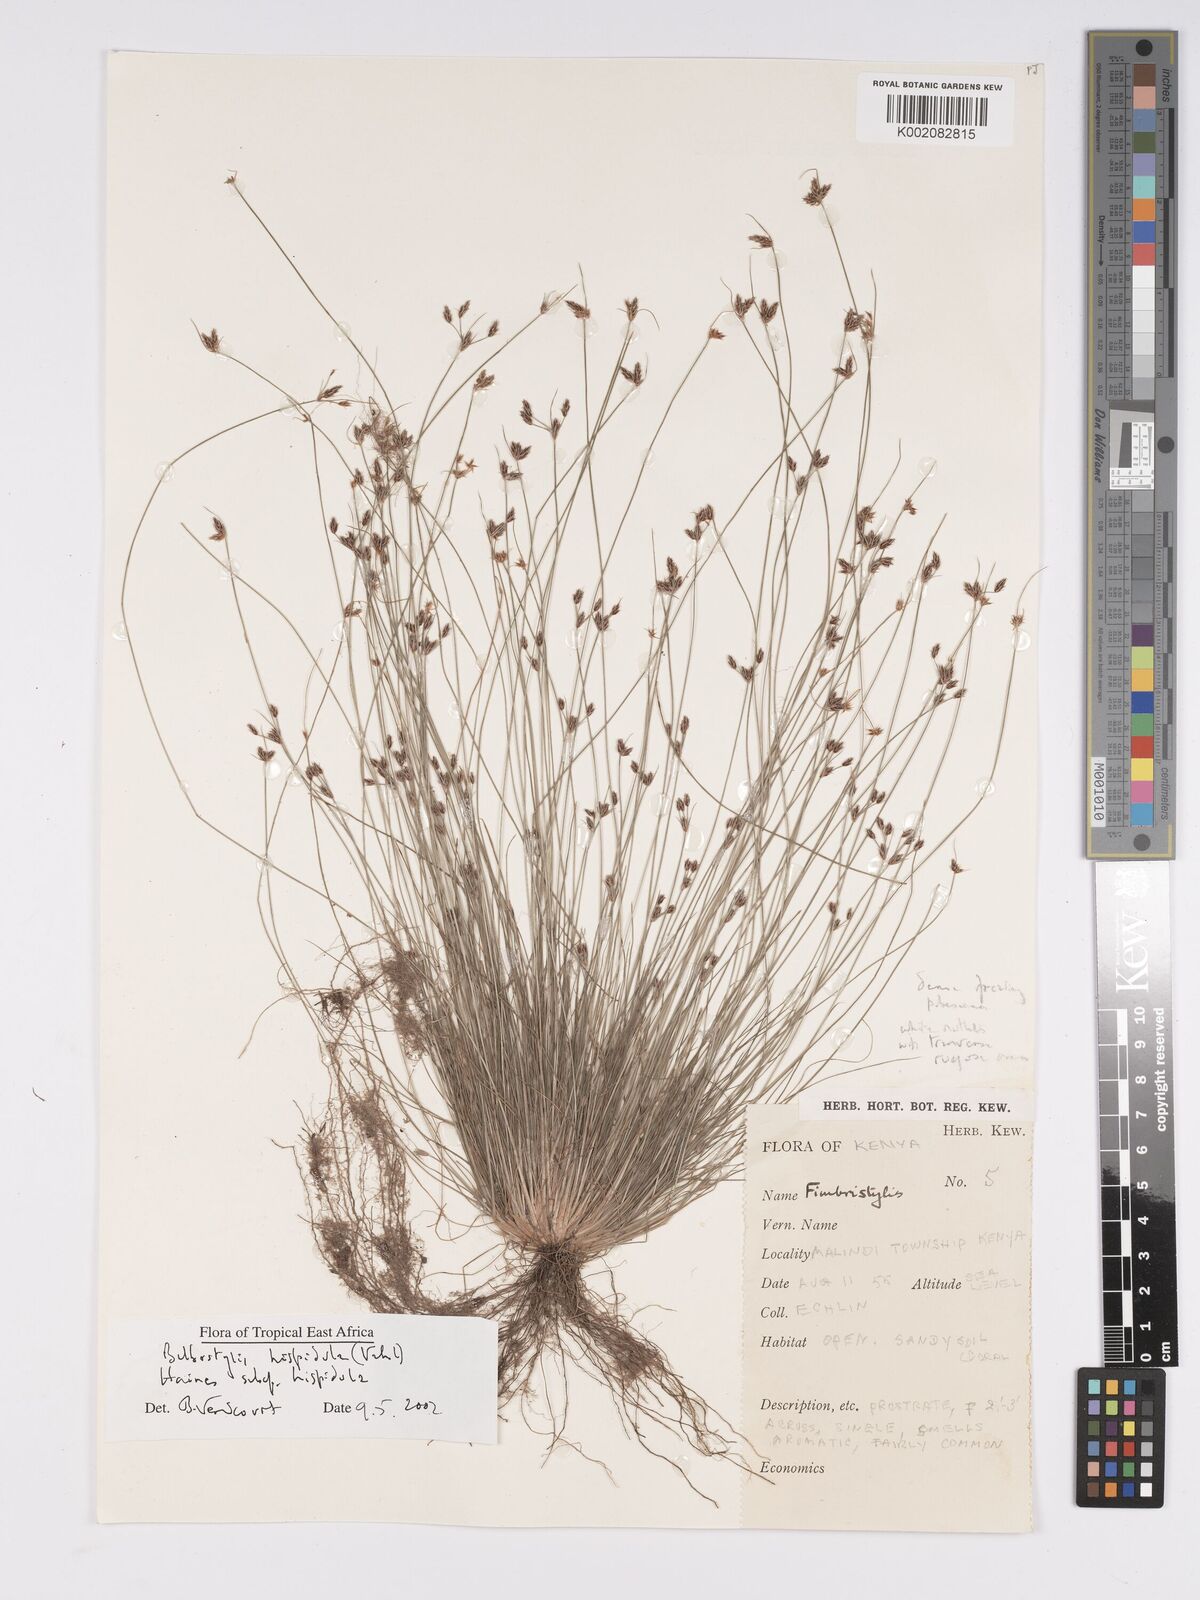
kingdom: Plantae
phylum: Tracheophyta
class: Liliopsida
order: Poales
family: Cyperaceae
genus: Bulbostylis
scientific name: Bulbostylis hispidula
